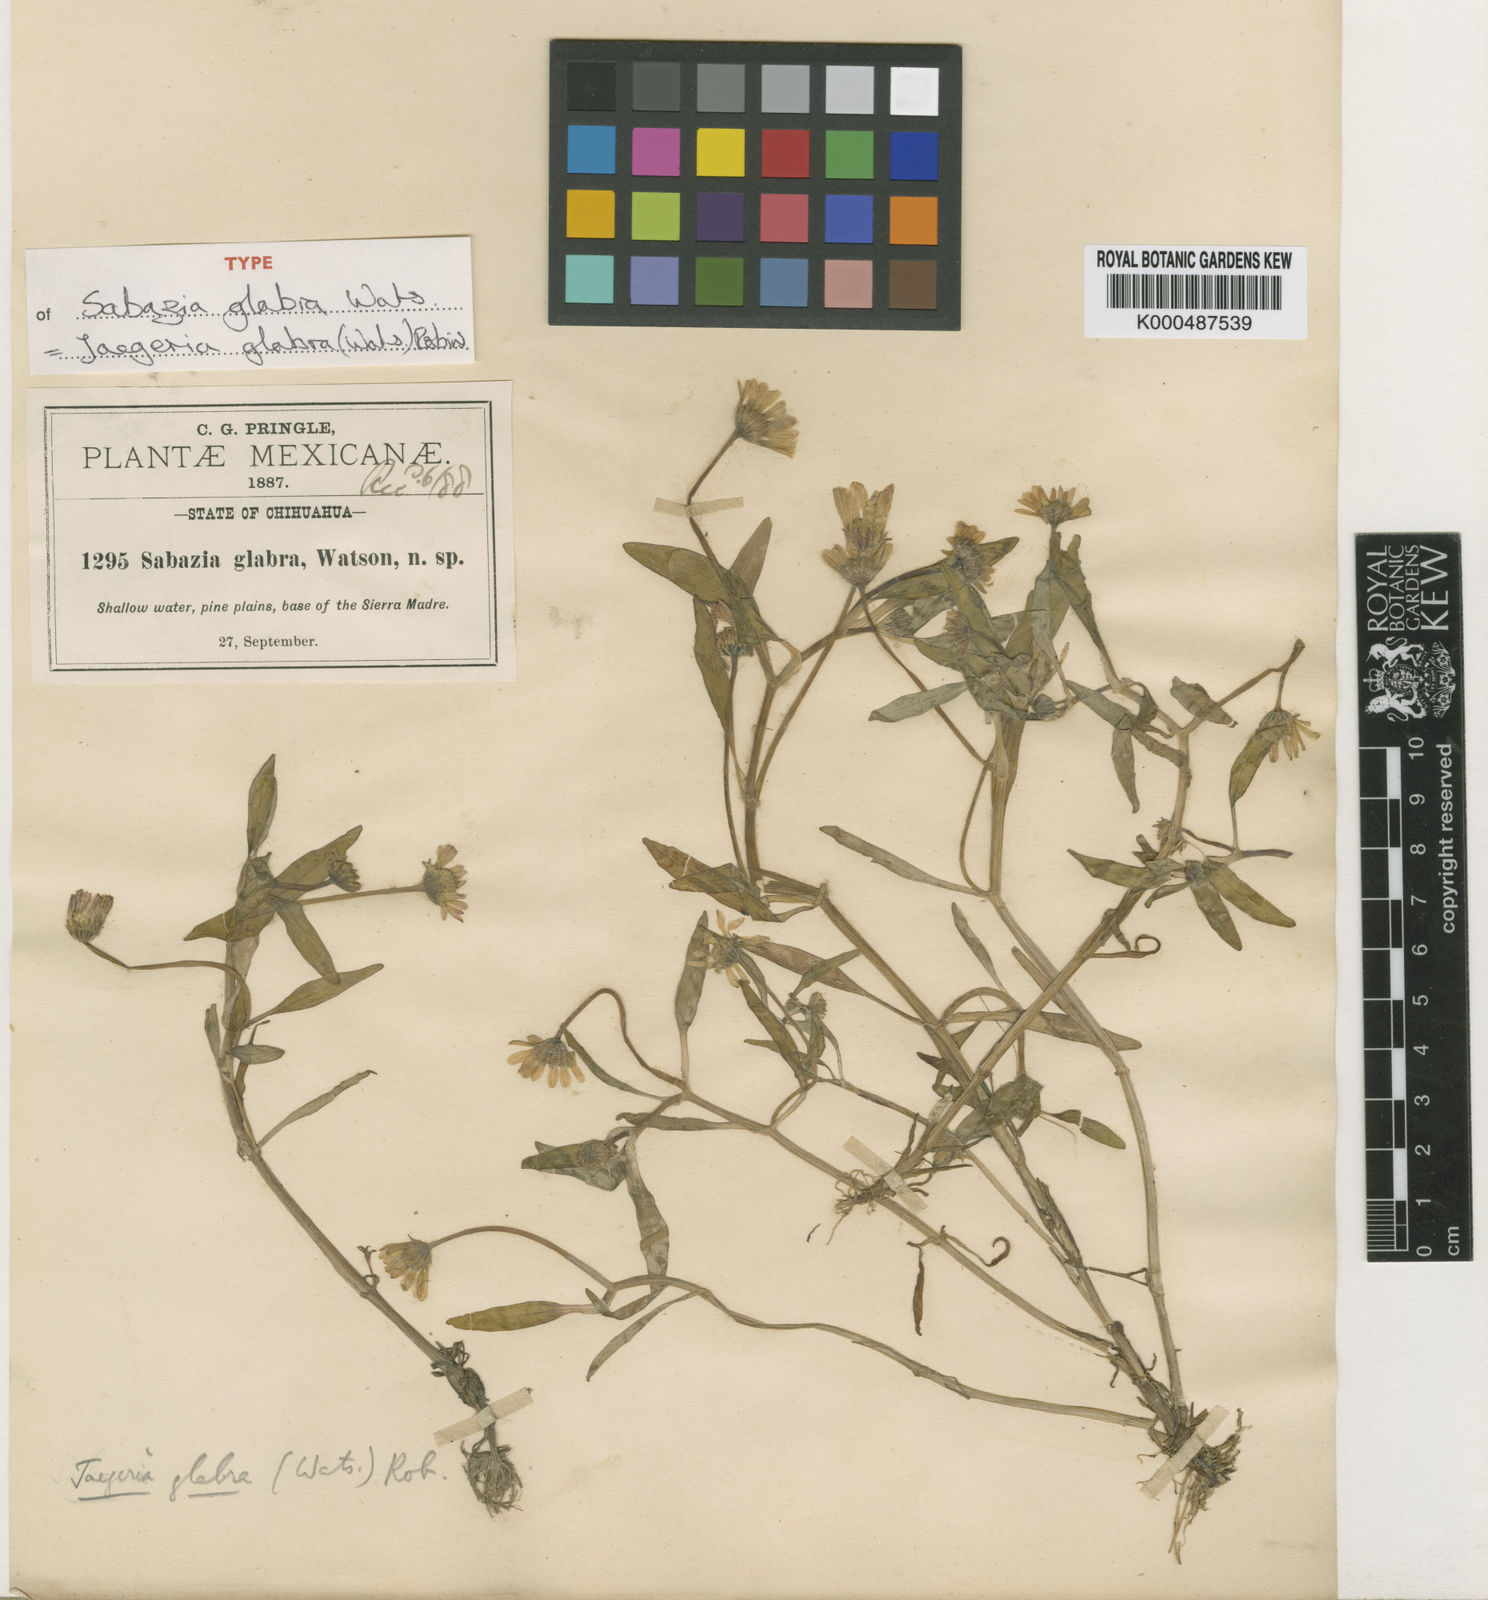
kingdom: Plantae
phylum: Tracheophyta
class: Magnoliopsida
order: Asterales
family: Asteraceae
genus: Jaegeria
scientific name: Jaegeria glabra
